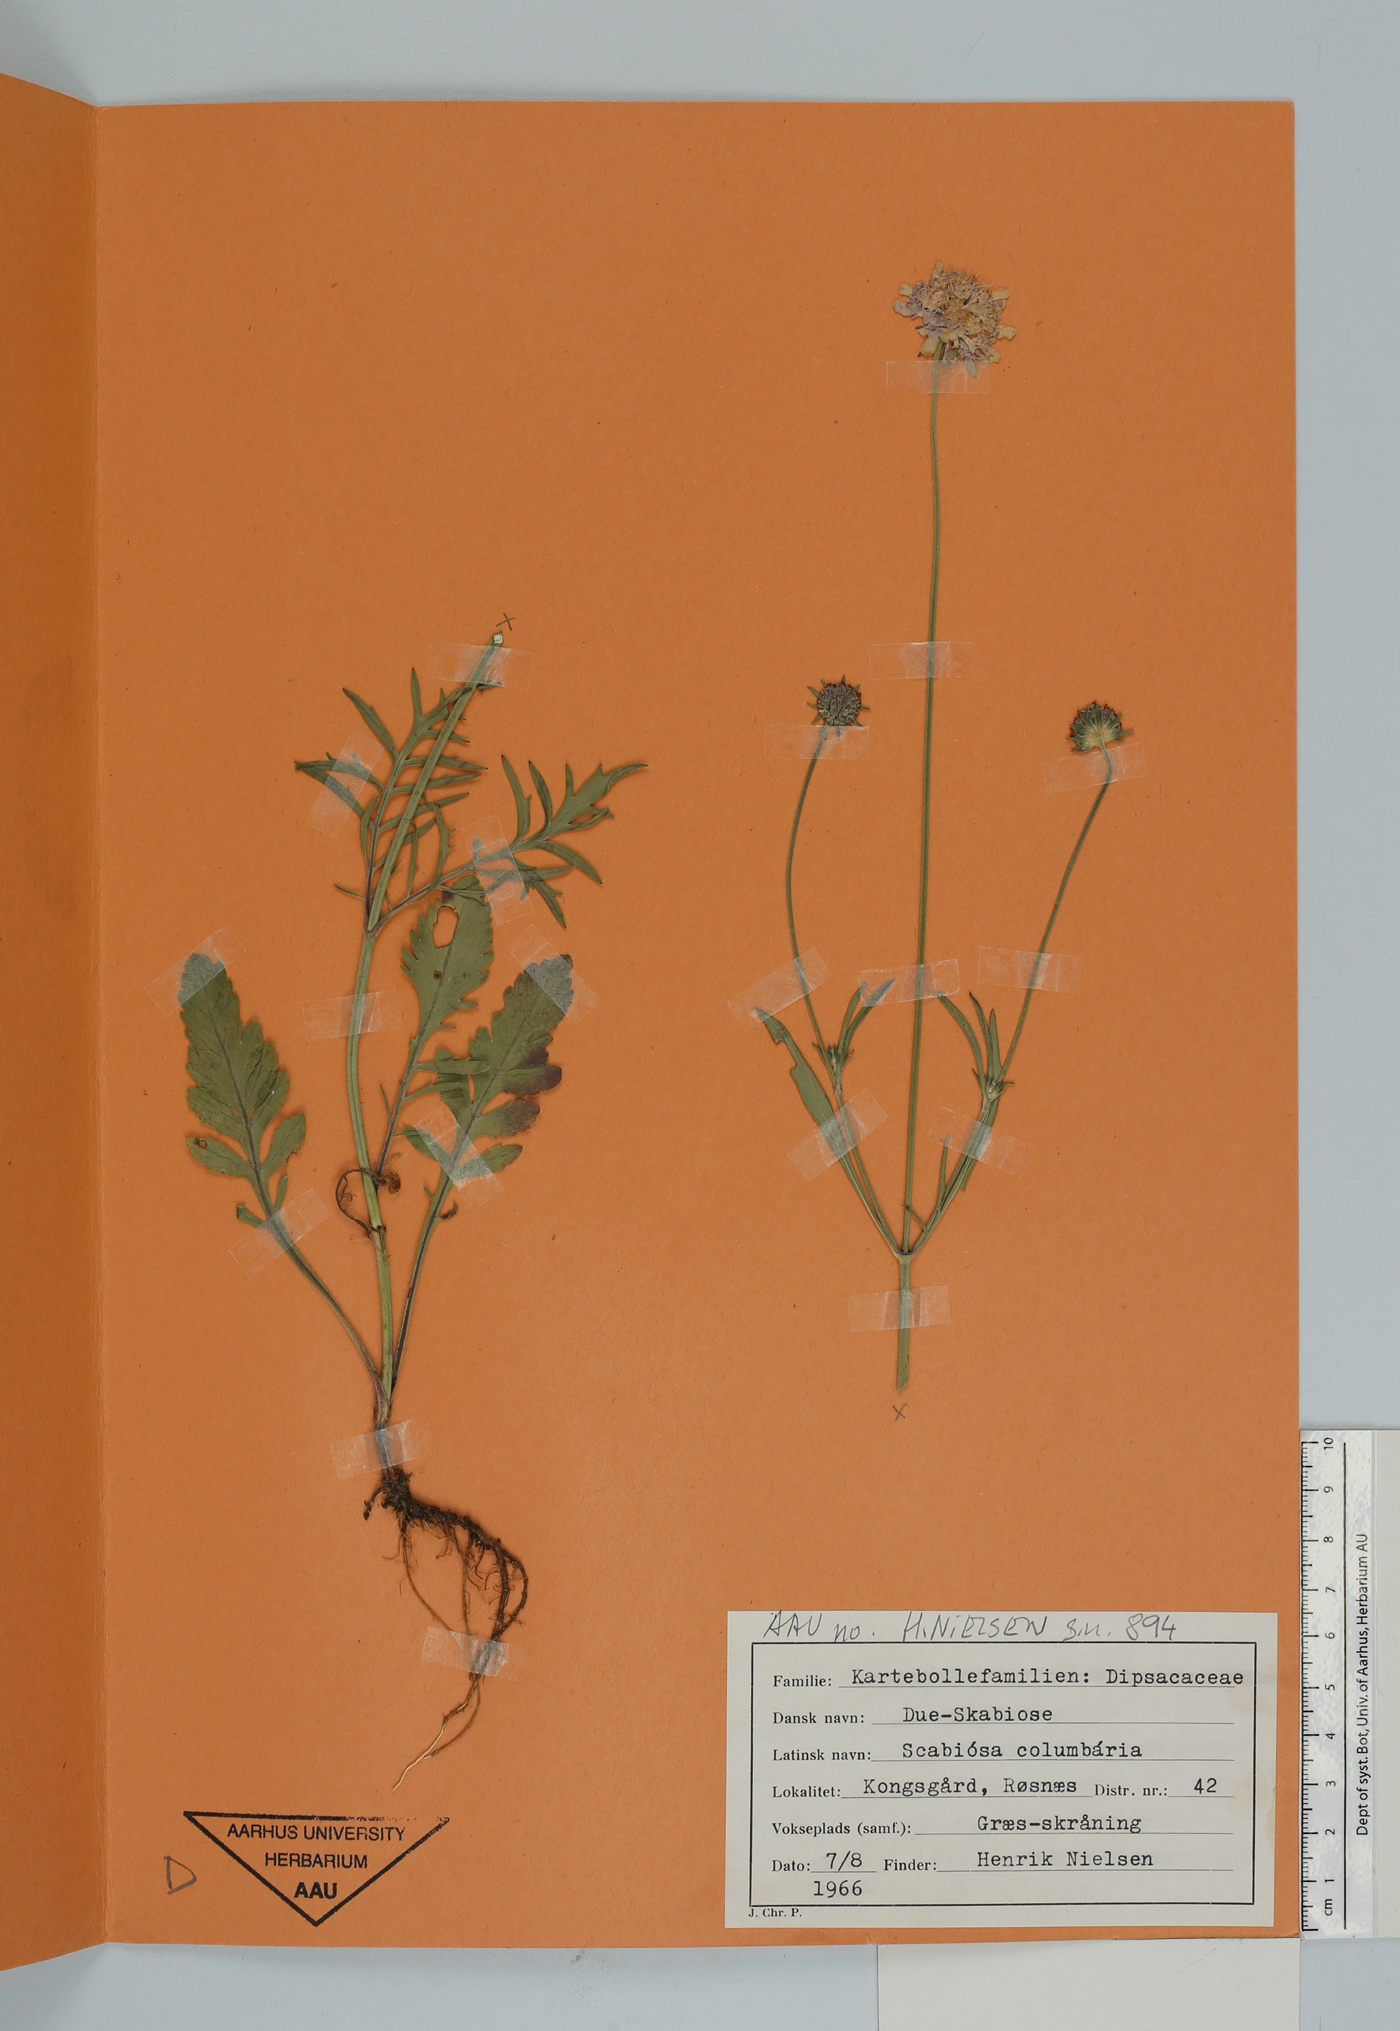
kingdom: Plantae
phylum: Tracheophyta
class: Magnoliopsida
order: Dipsacales
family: Caprifoliaceae
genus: Scabiosa
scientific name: Scabiosa columbaria
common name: Small scabious
